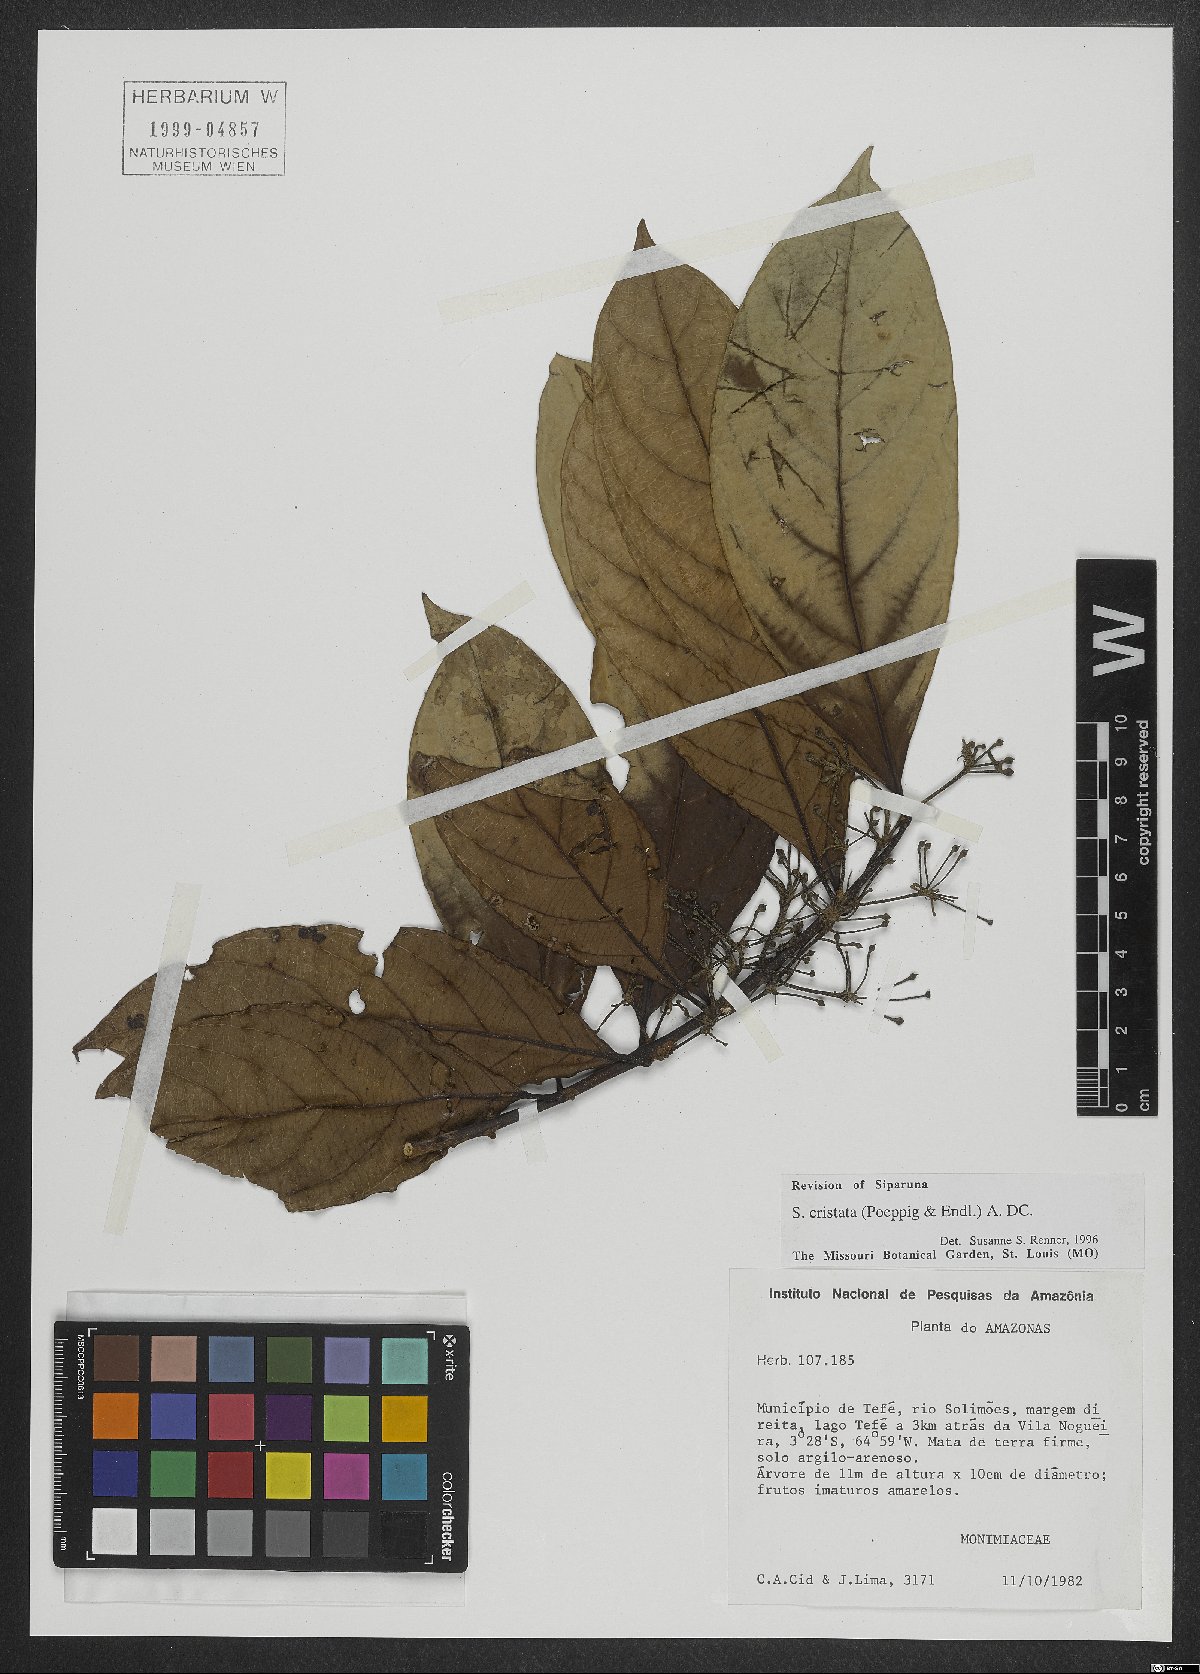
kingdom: Plantae
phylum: Tracheophyta
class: Magnoliopsida
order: Laurales
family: Siparunaceae
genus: Siparuna
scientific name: Siparuna cristata
